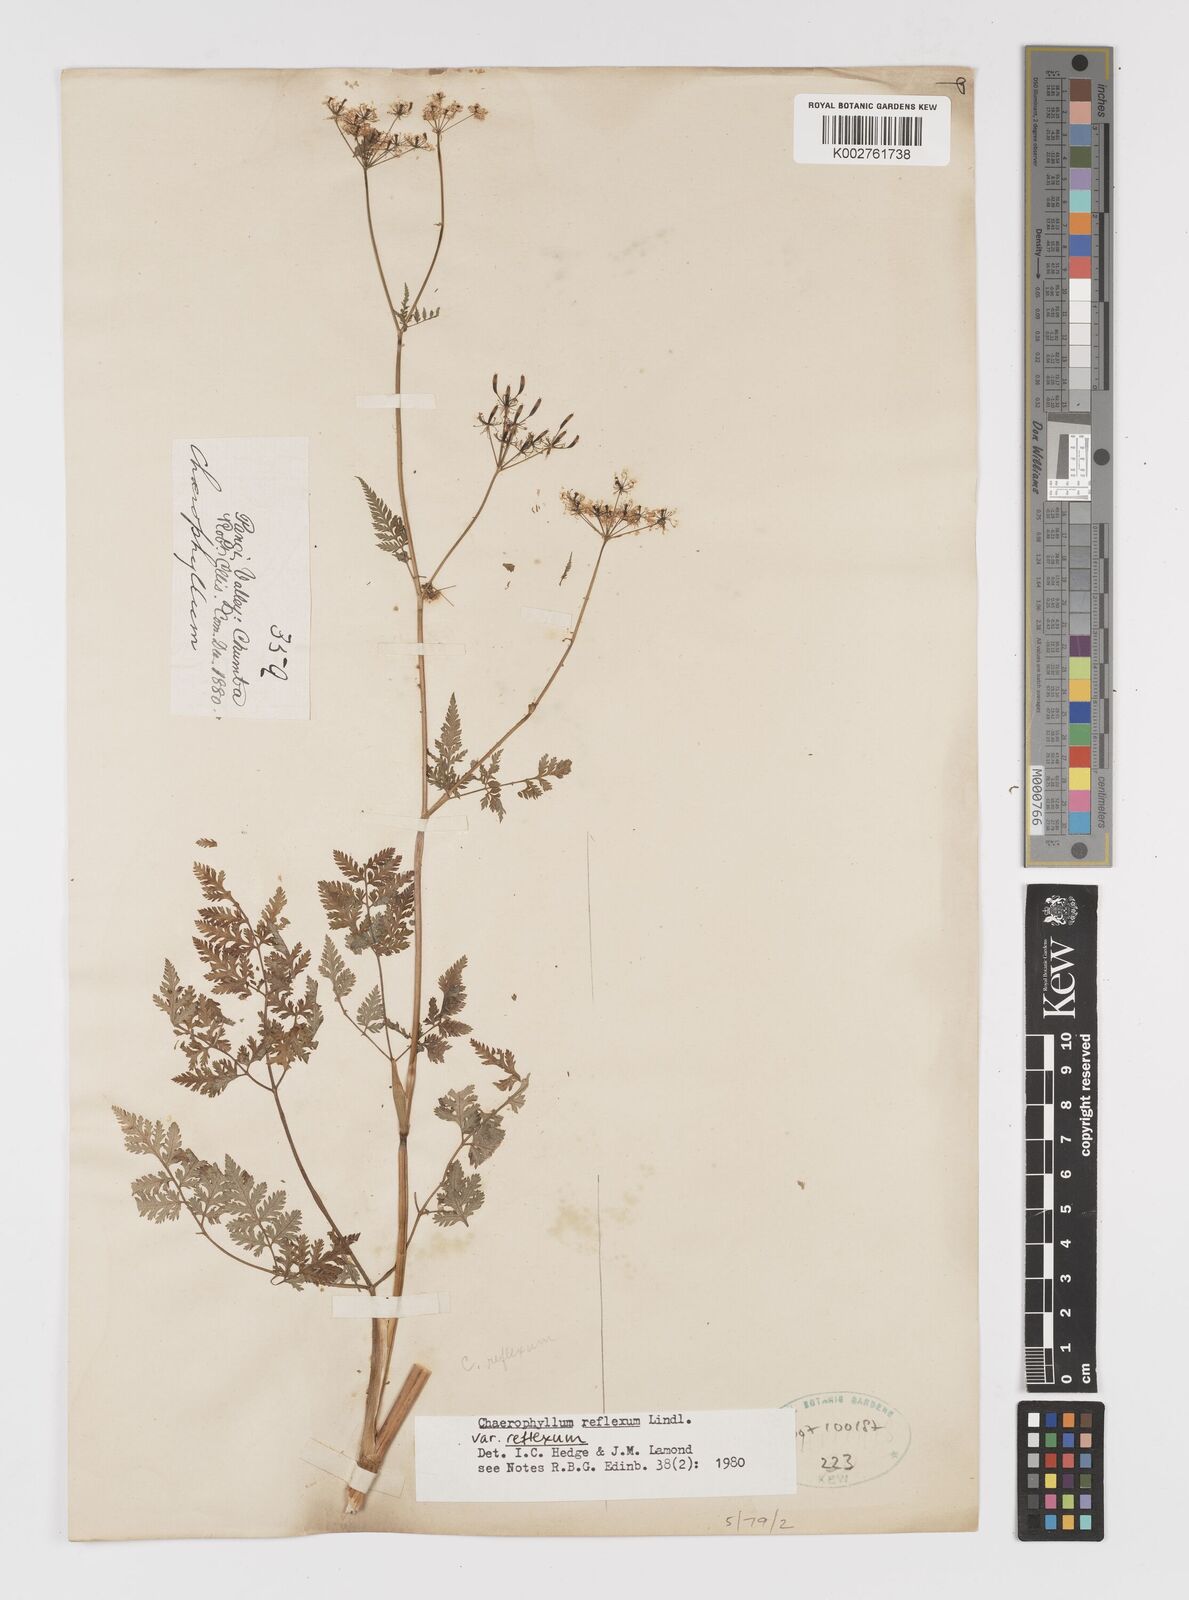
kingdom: Plantae
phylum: Tracheophyta
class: Magnoliopsida
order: Apiales
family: Apiaceae
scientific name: Apiaceae
